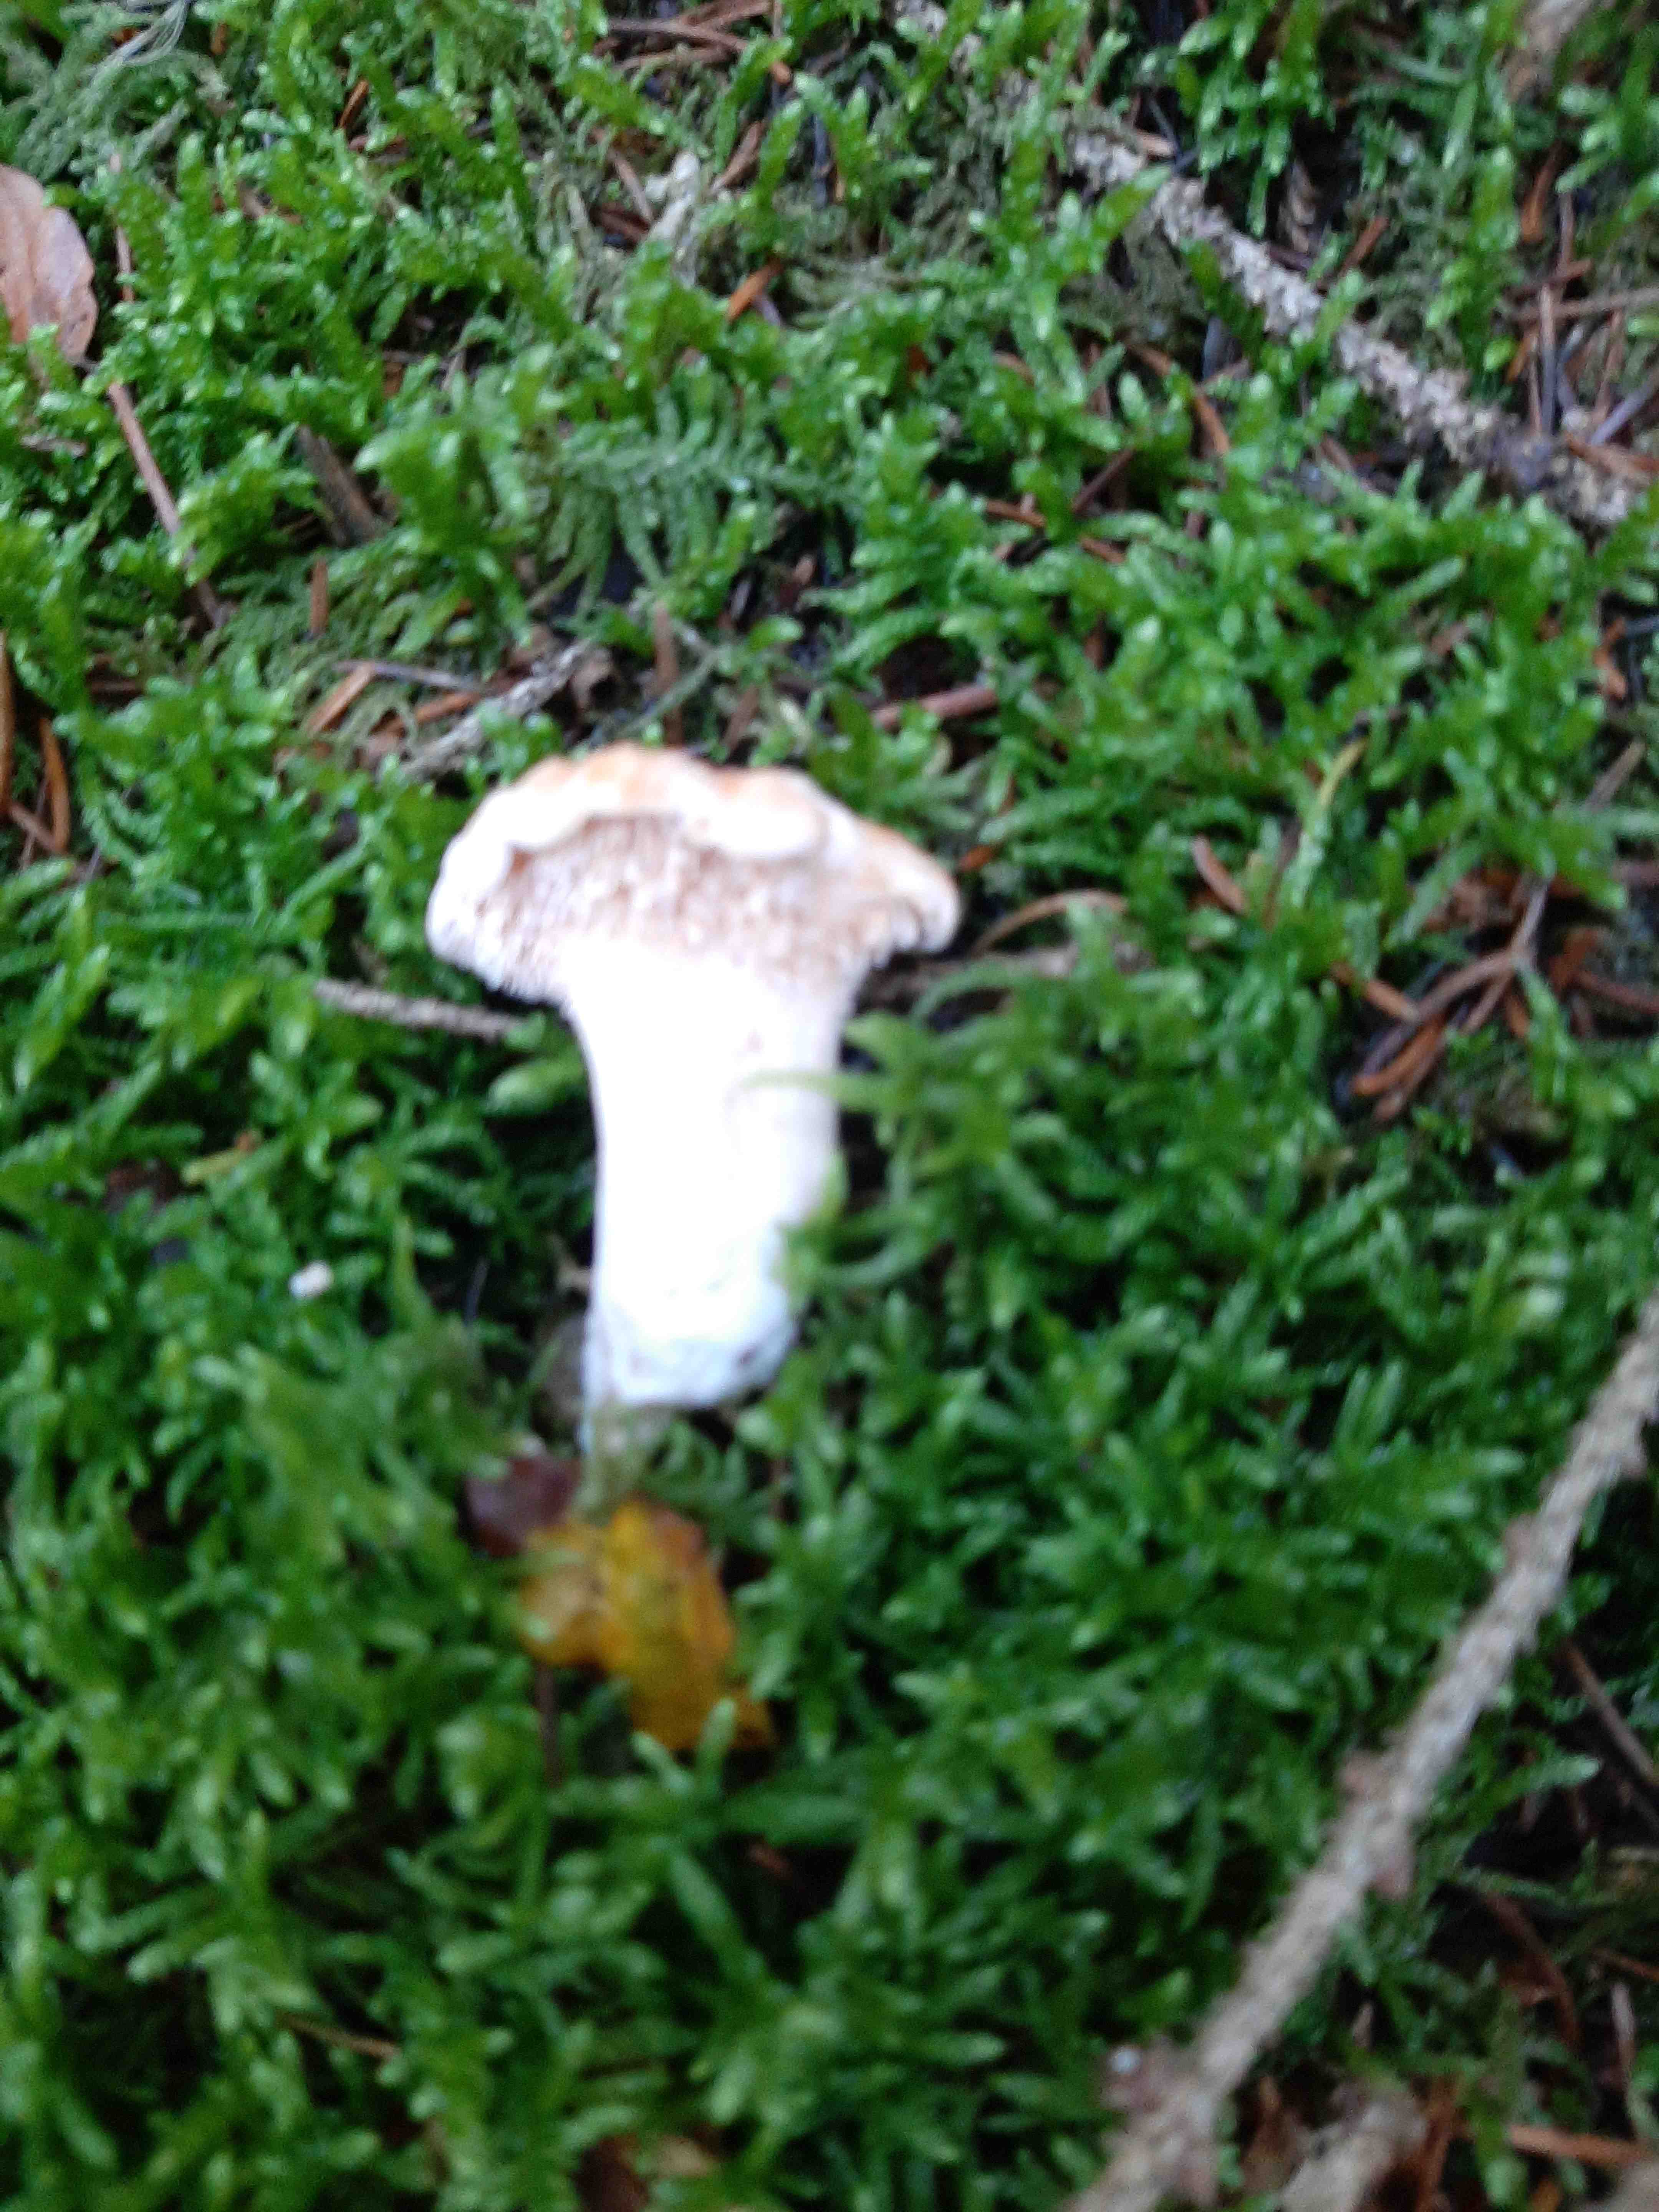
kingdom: Fungi
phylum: Basidiomycota
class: Agaricomycetes
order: Cantharellales
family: Hydnaceae
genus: Hydnum
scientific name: Hydnum
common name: pigsvamp
